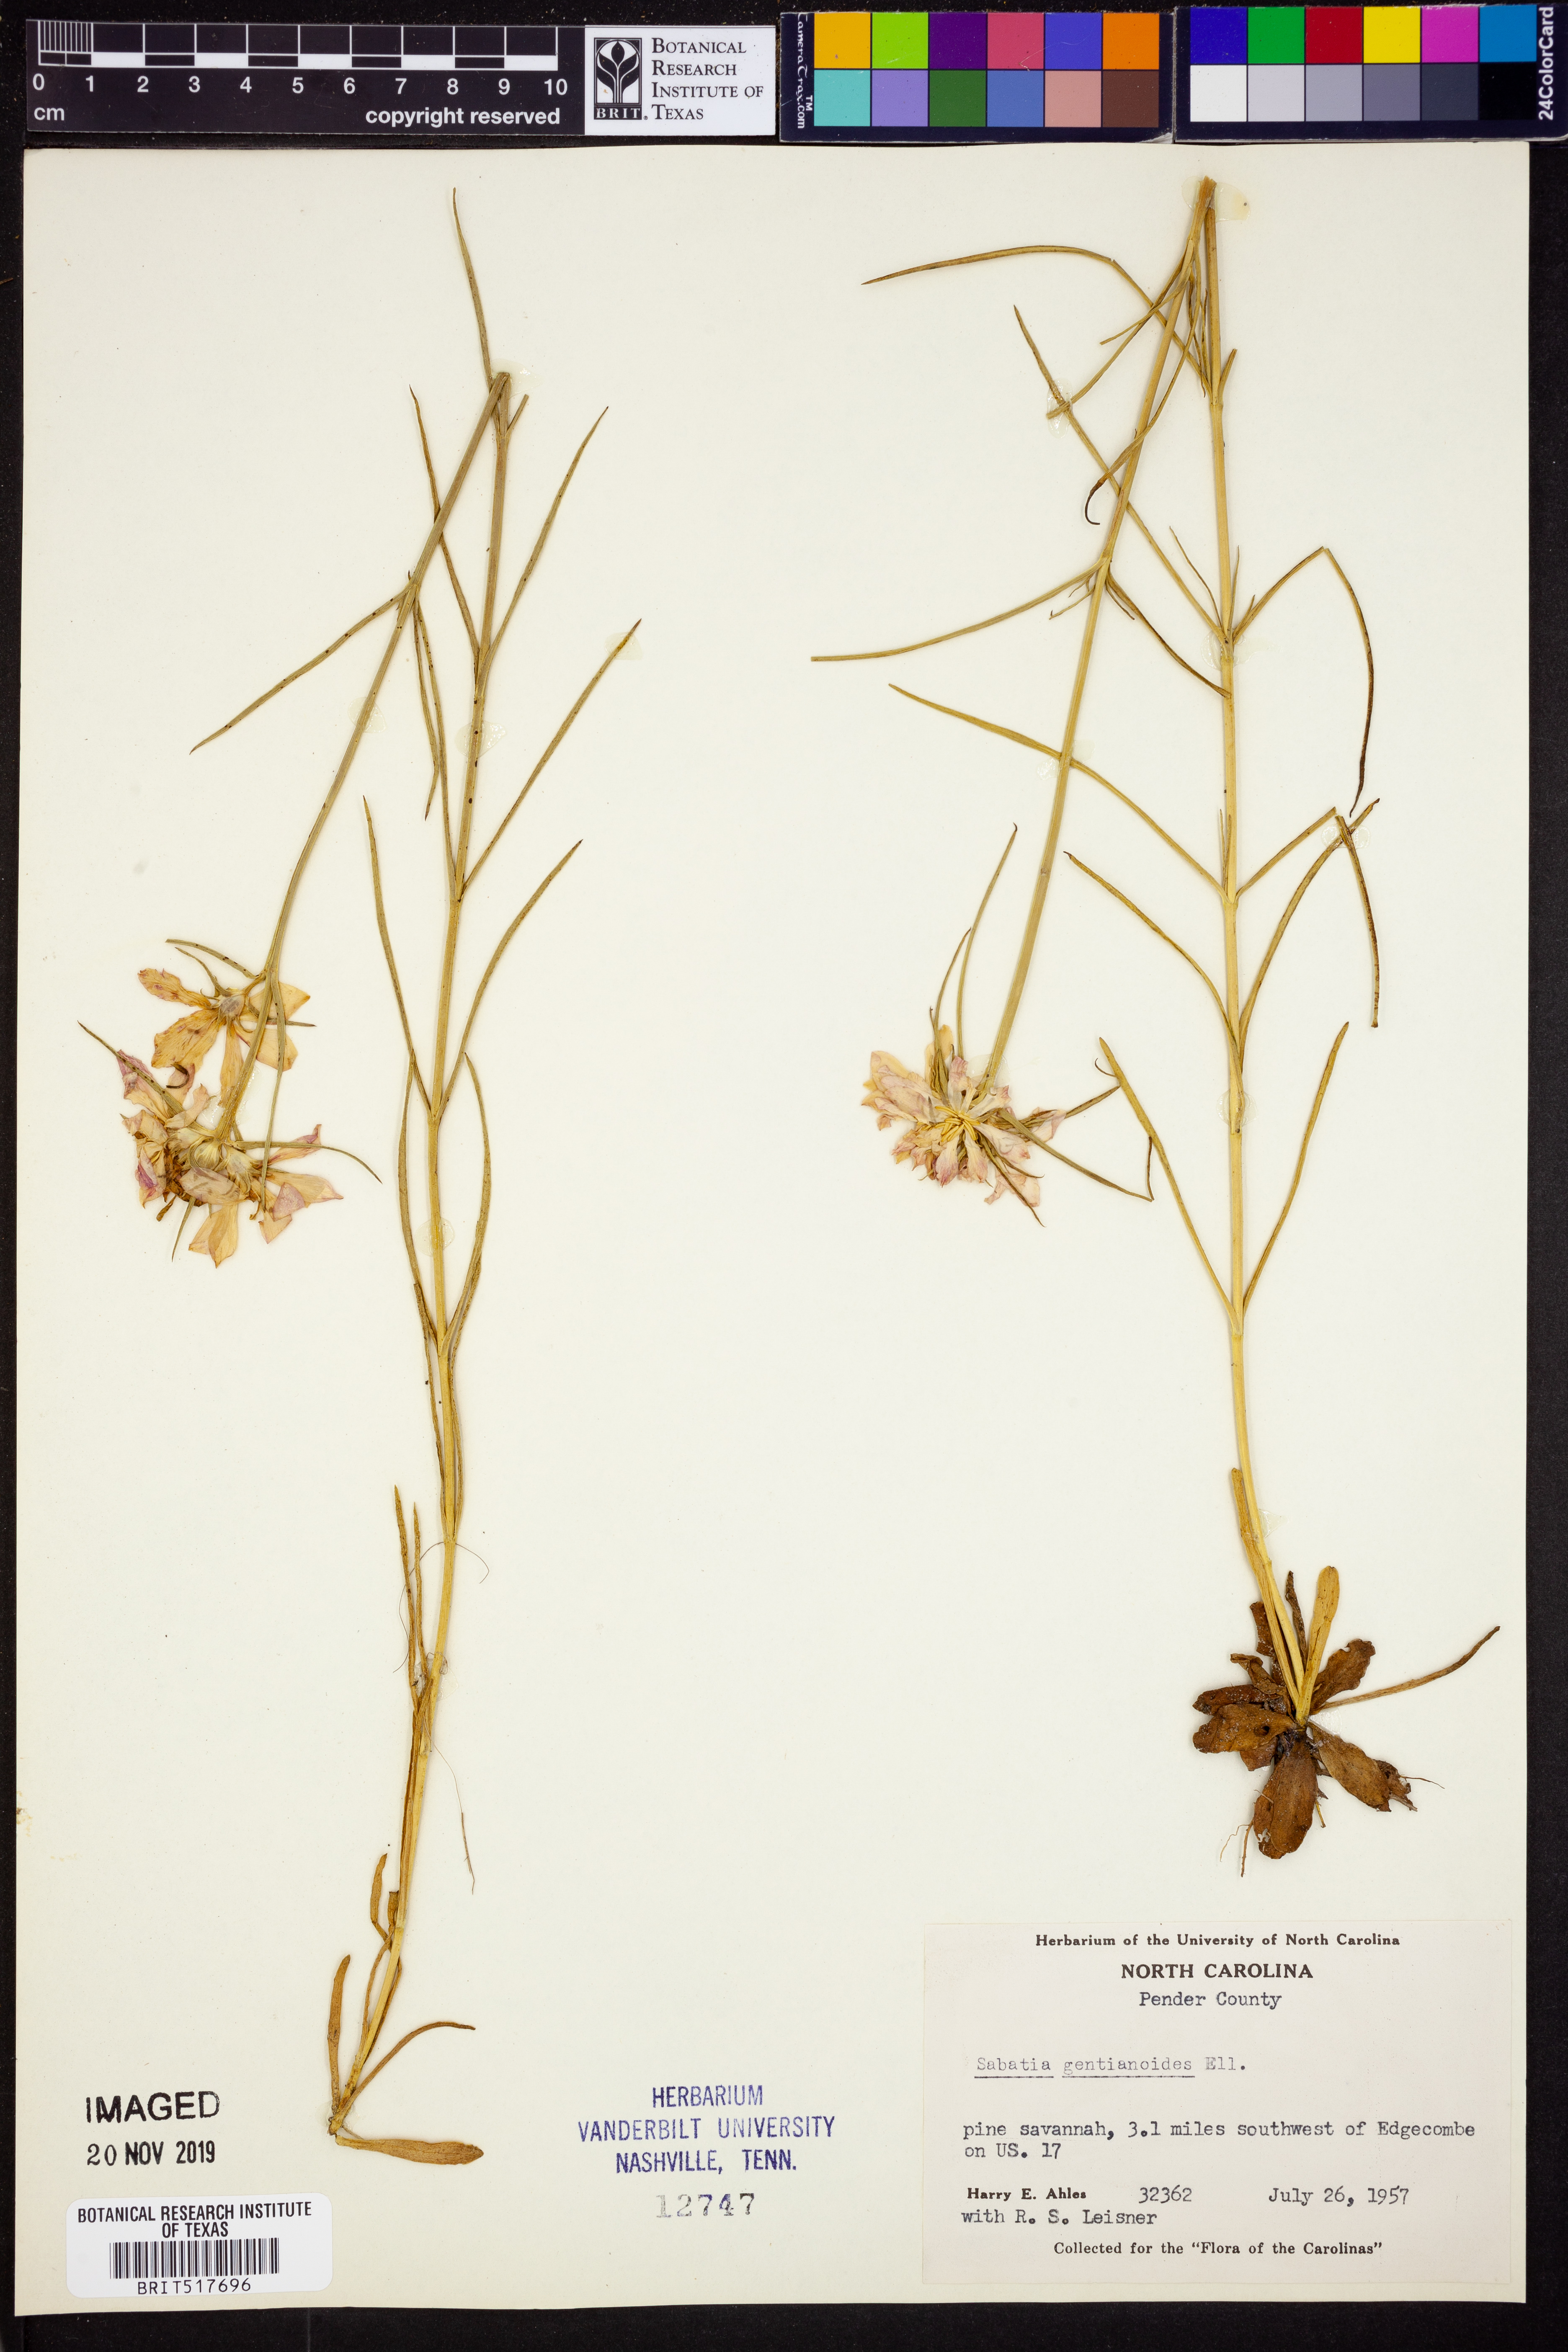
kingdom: Plantae
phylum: Tracheophyta
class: Magnoliopsida
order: Gentianales
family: Gentianaceae
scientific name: Gentianaceae
